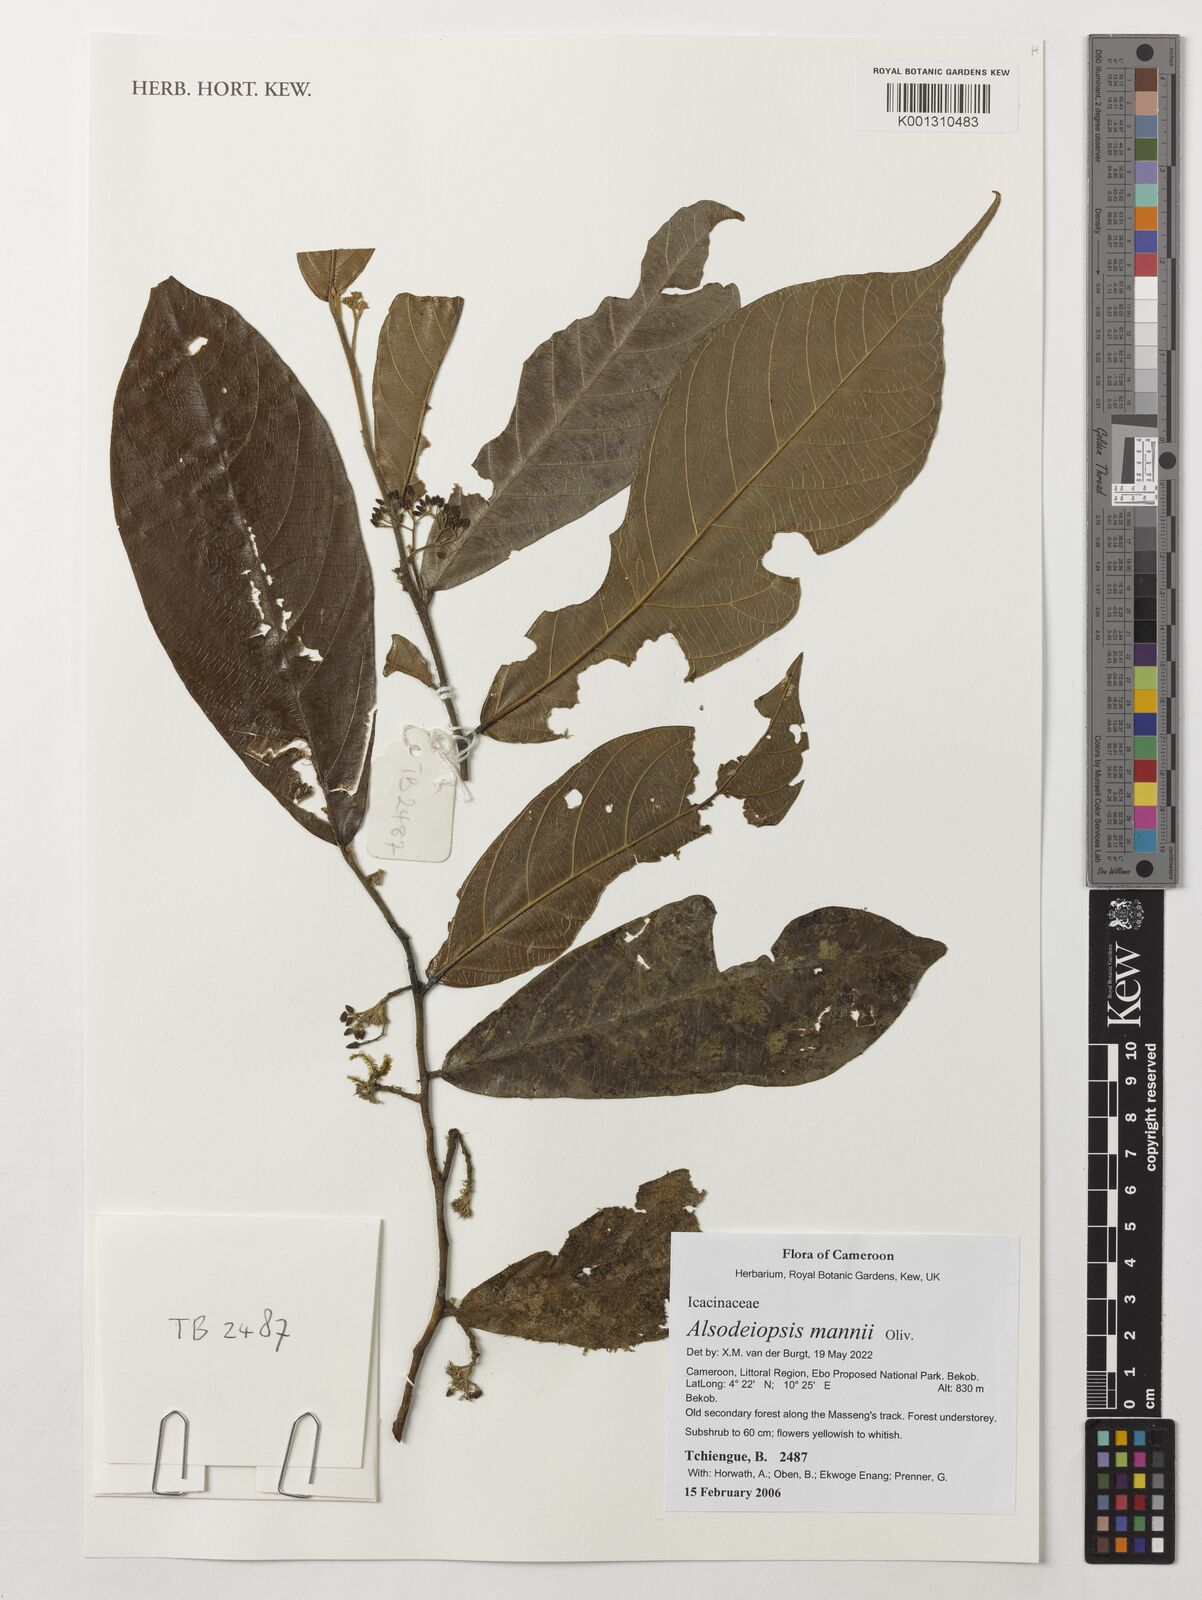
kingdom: Plantae
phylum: Tracheophyta
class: Magnoliopsida
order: Icacinales
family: Icacinaceae
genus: Alsodeiopsis
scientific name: Alsodeiopsis mannii
